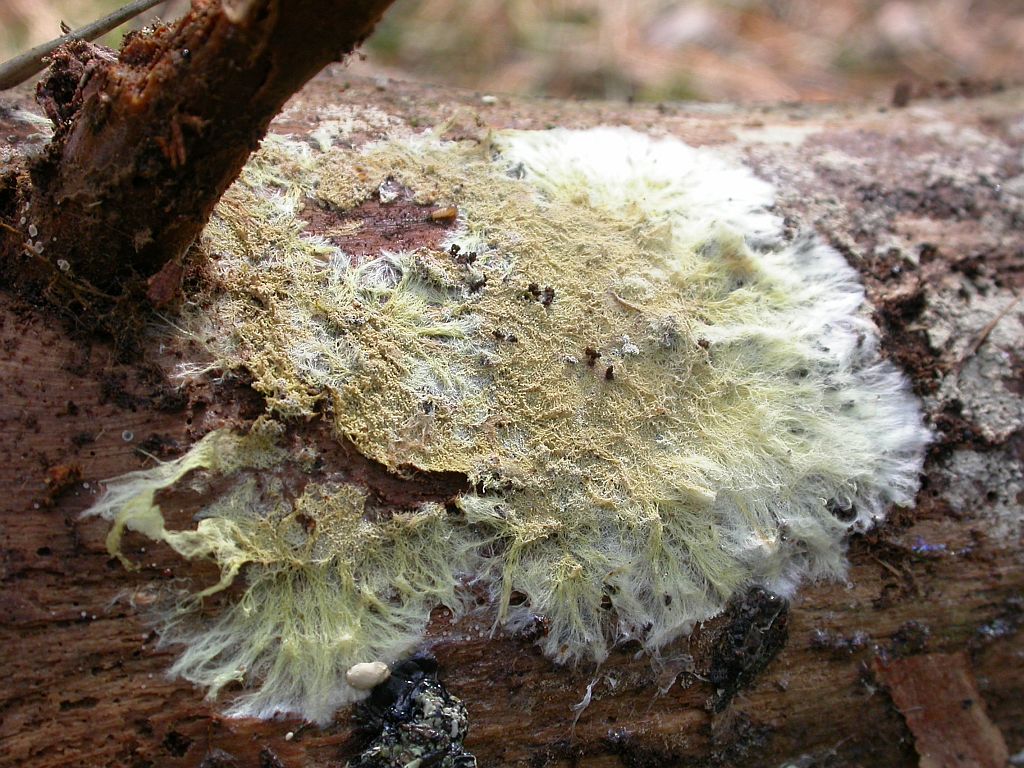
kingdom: Fungi
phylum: Basidiomycota
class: Agaricomycetes
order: Russulales
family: Xenasmataceae
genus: Xenasmatella
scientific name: Xenasmatella vaga
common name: svovl-strenghinde
